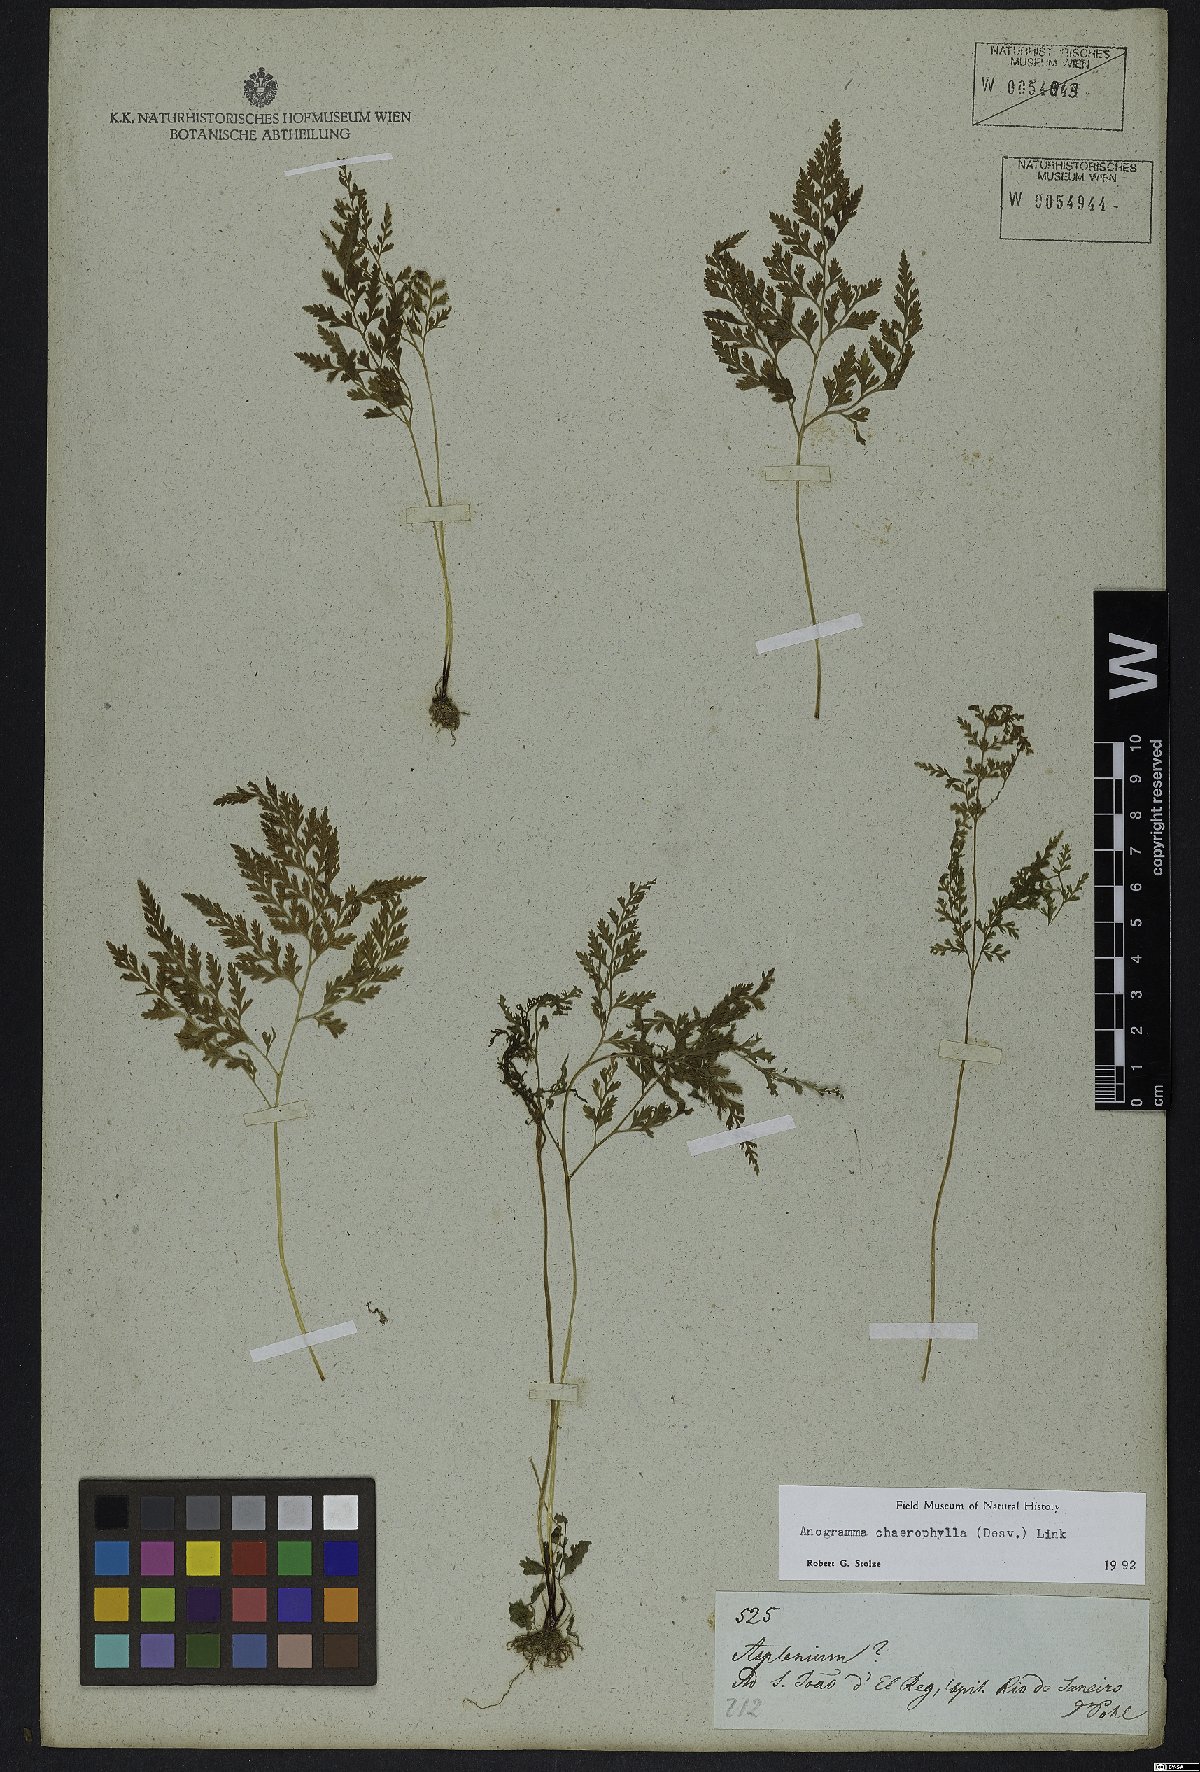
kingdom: Plantae
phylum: Tracheophyta
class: Polypodiopsida
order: Polypodiales
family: Pteridaceae
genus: Gastoniella
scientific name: Gastoniella chaerophylla
